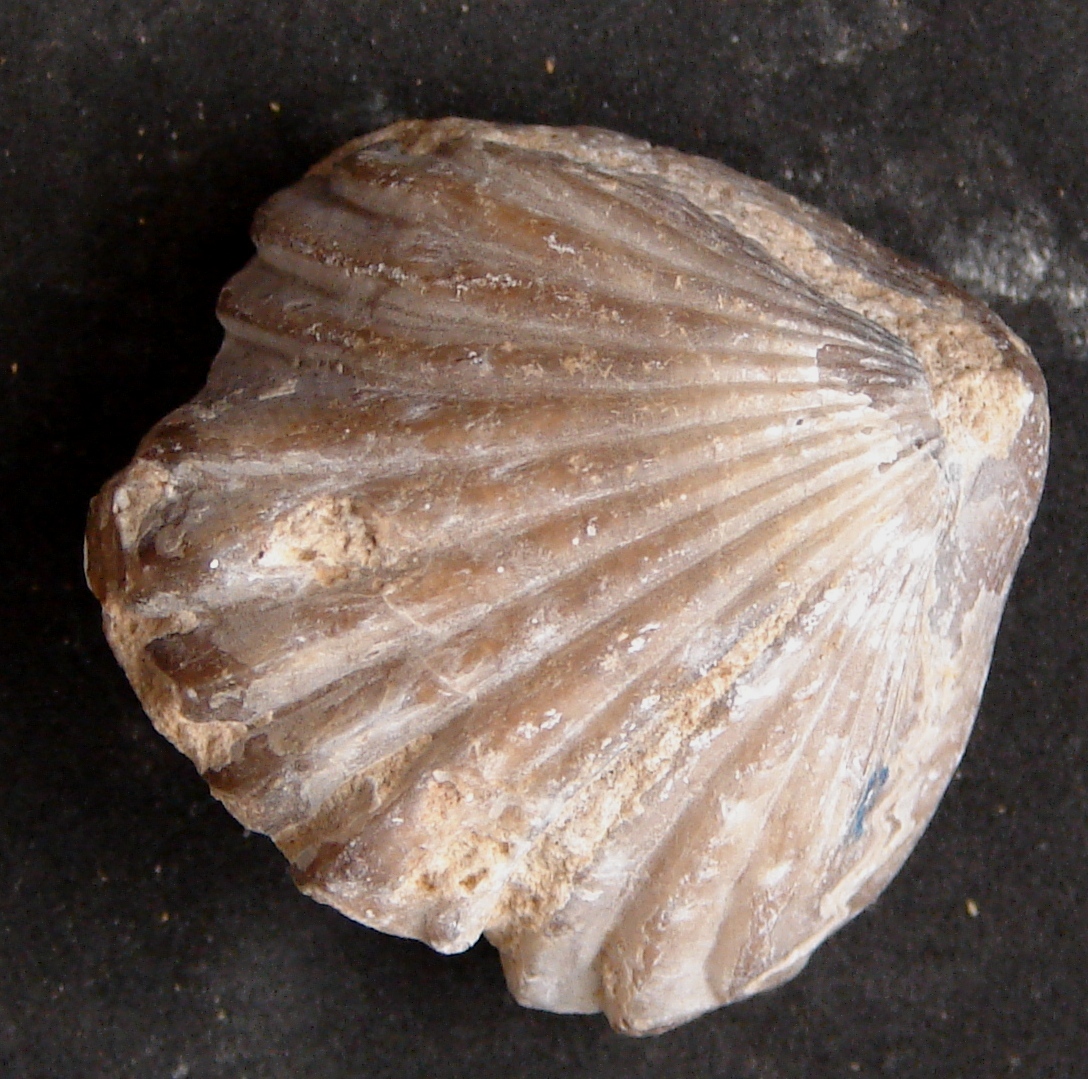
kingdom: Animalia
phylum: Brachiopoda
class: Rhynchonellata
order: Rhynchonellida
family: Rhynchonellidae
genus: Cymatorhynchia
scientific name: Cymatorhynchia Terebratula quadriplicata
